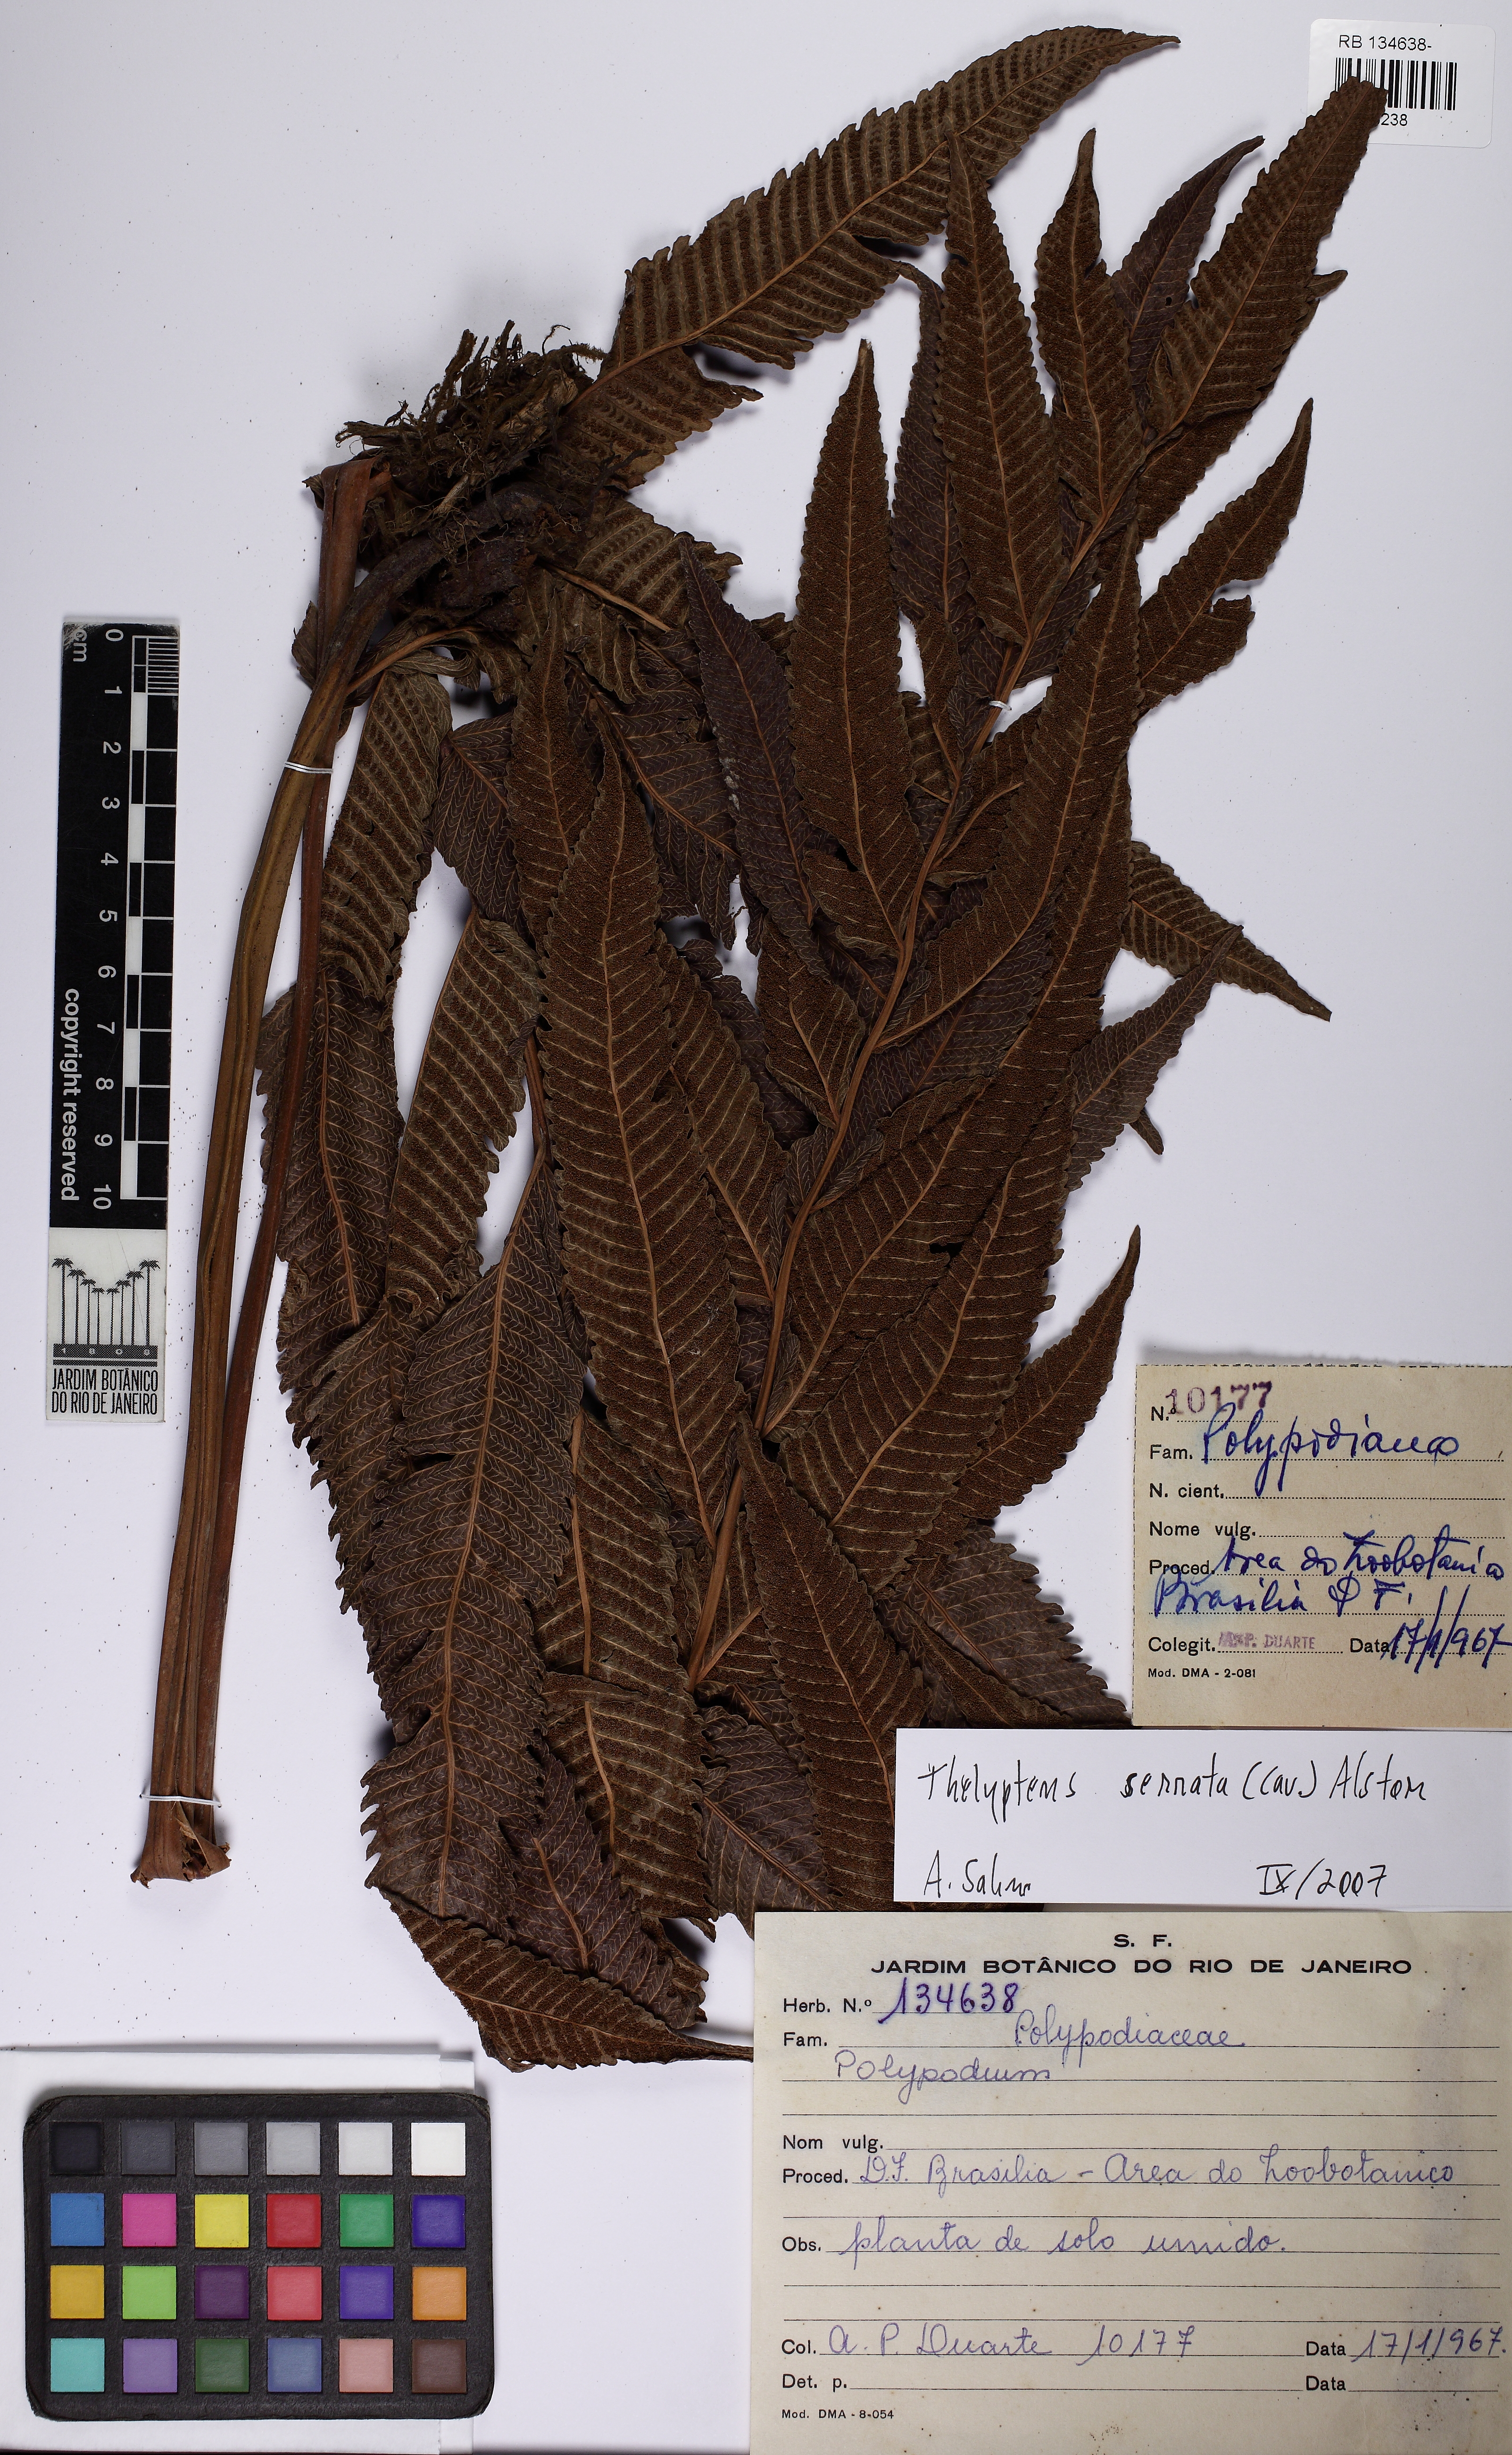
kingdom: Plantae
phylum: Tracheophyta
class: Polypodiopsida
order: Polypodiales
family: Thelypteridaceae
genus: Meniscium
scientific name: Meniscium serratum
